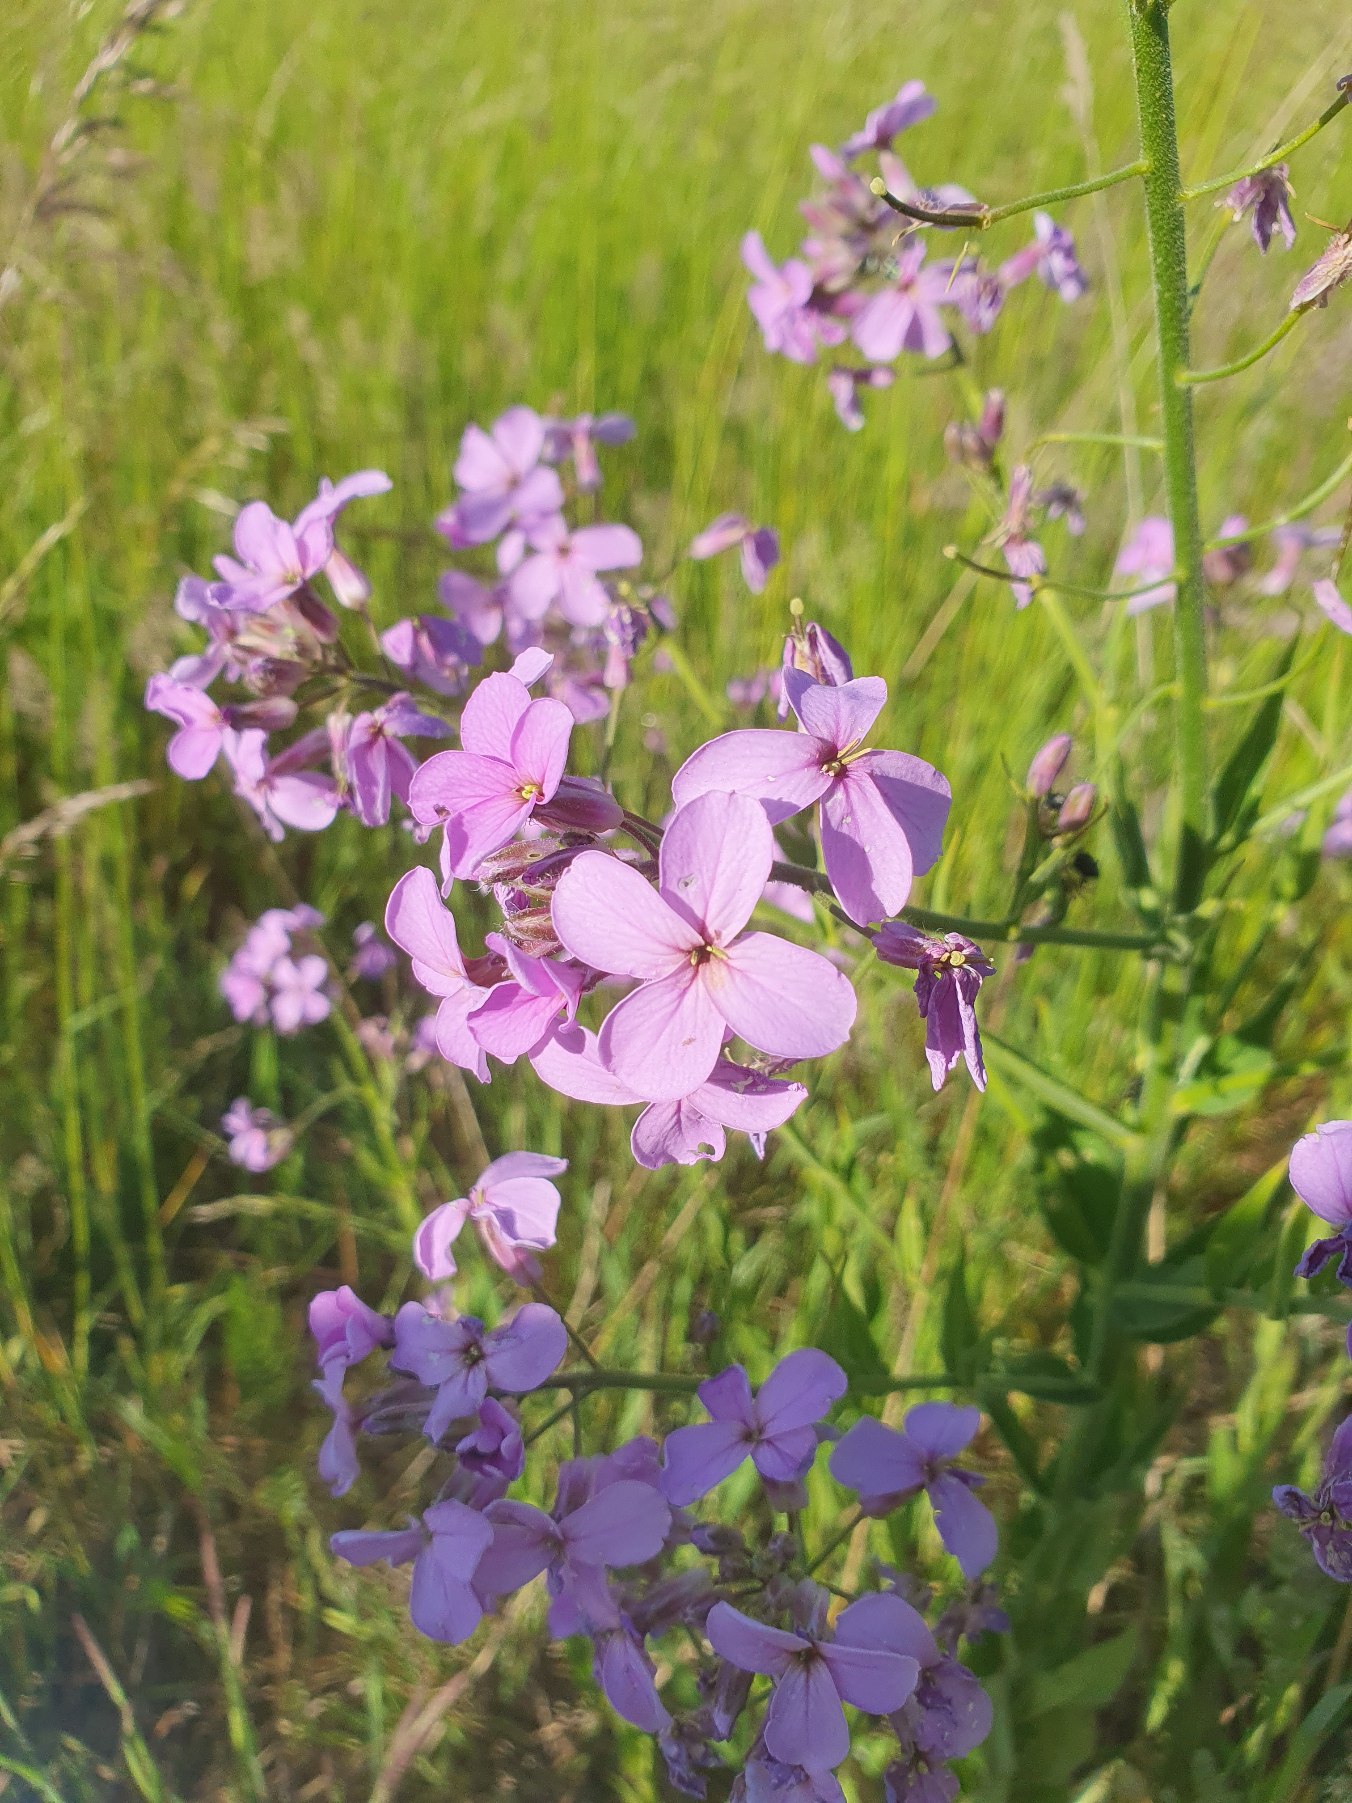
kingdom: Plantae
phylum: Tracheophyta
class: Magnoliopsida
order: Brassicales
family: Brassicaceae
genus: Hesperis
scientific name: Hesperis matronalis
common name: Aftenstjerne
